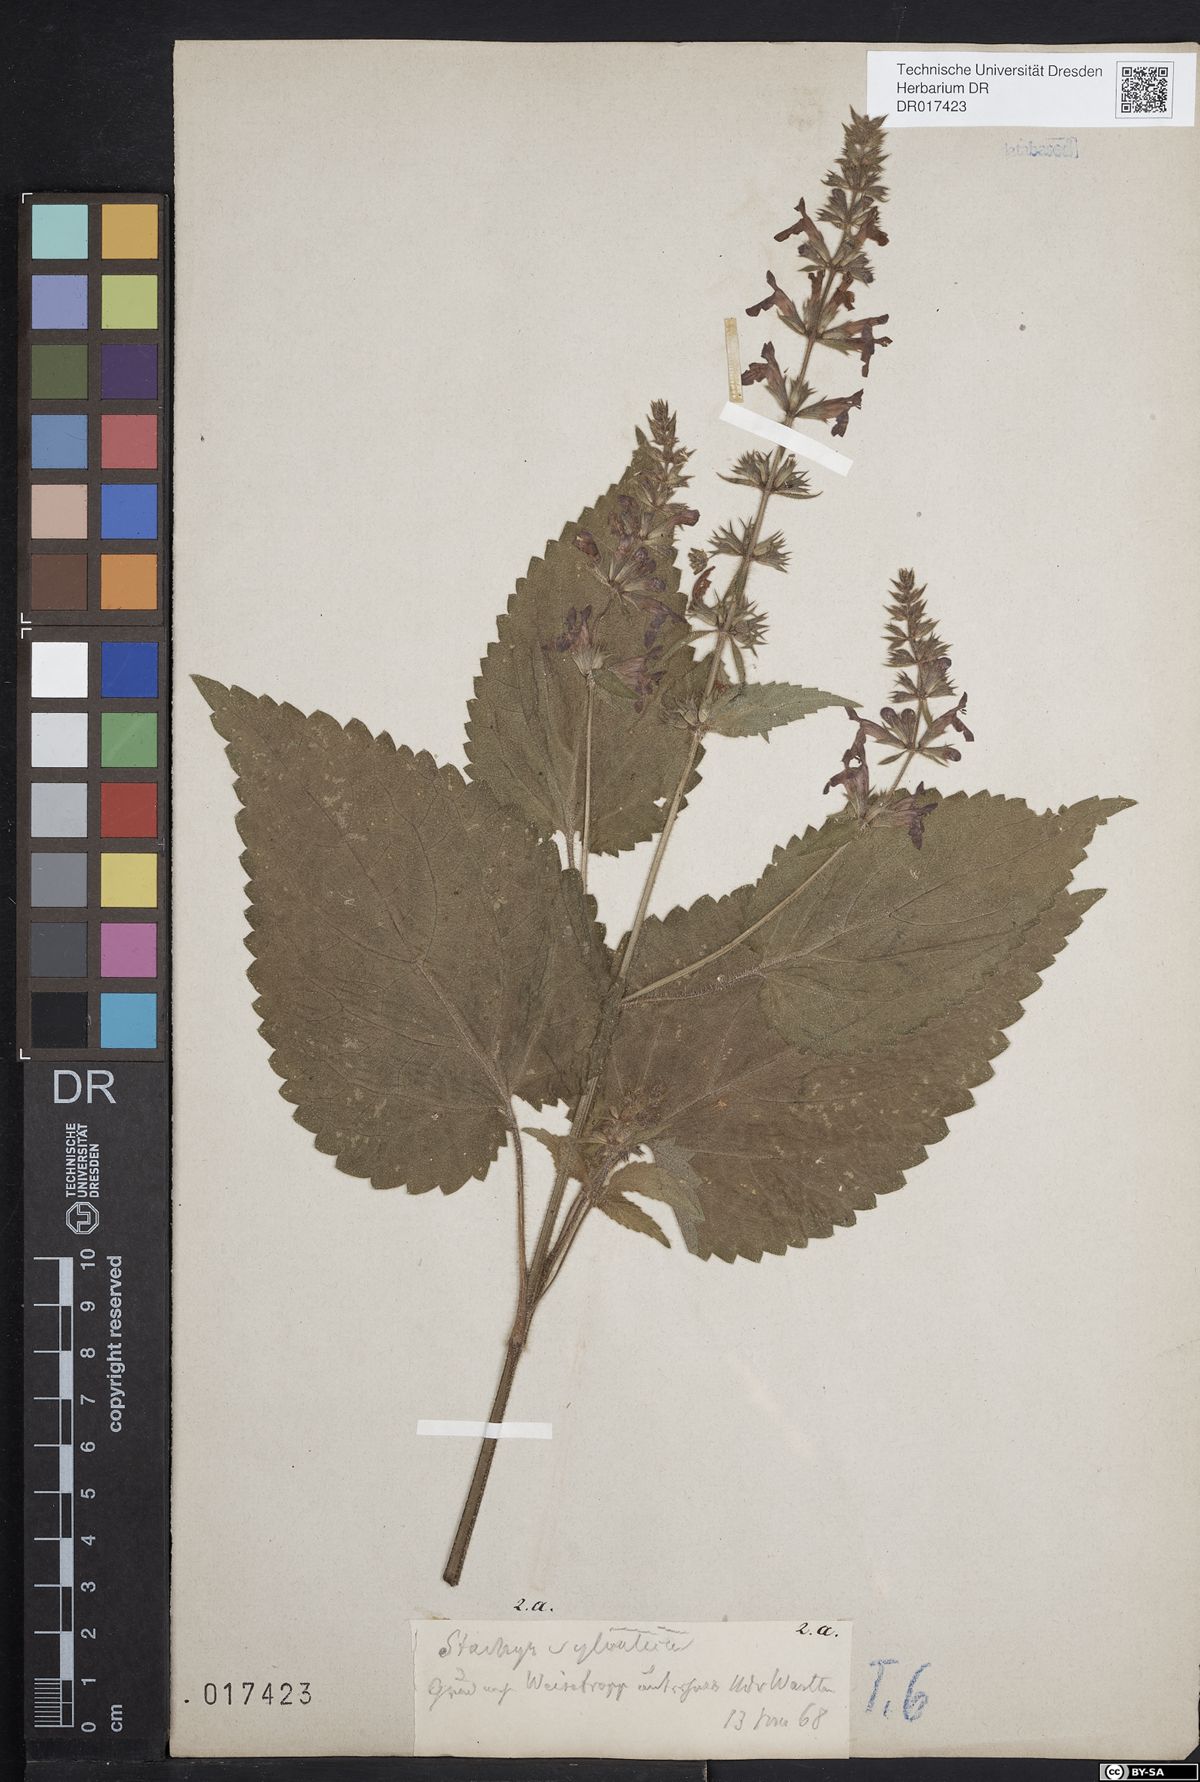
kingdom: Plantae
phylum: Tracheophyta
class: Magnoliopsida
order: Lamiales
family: Lamiaceae
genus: Stachys
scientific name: Stachys sylvatica
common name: Hedge woundwort
